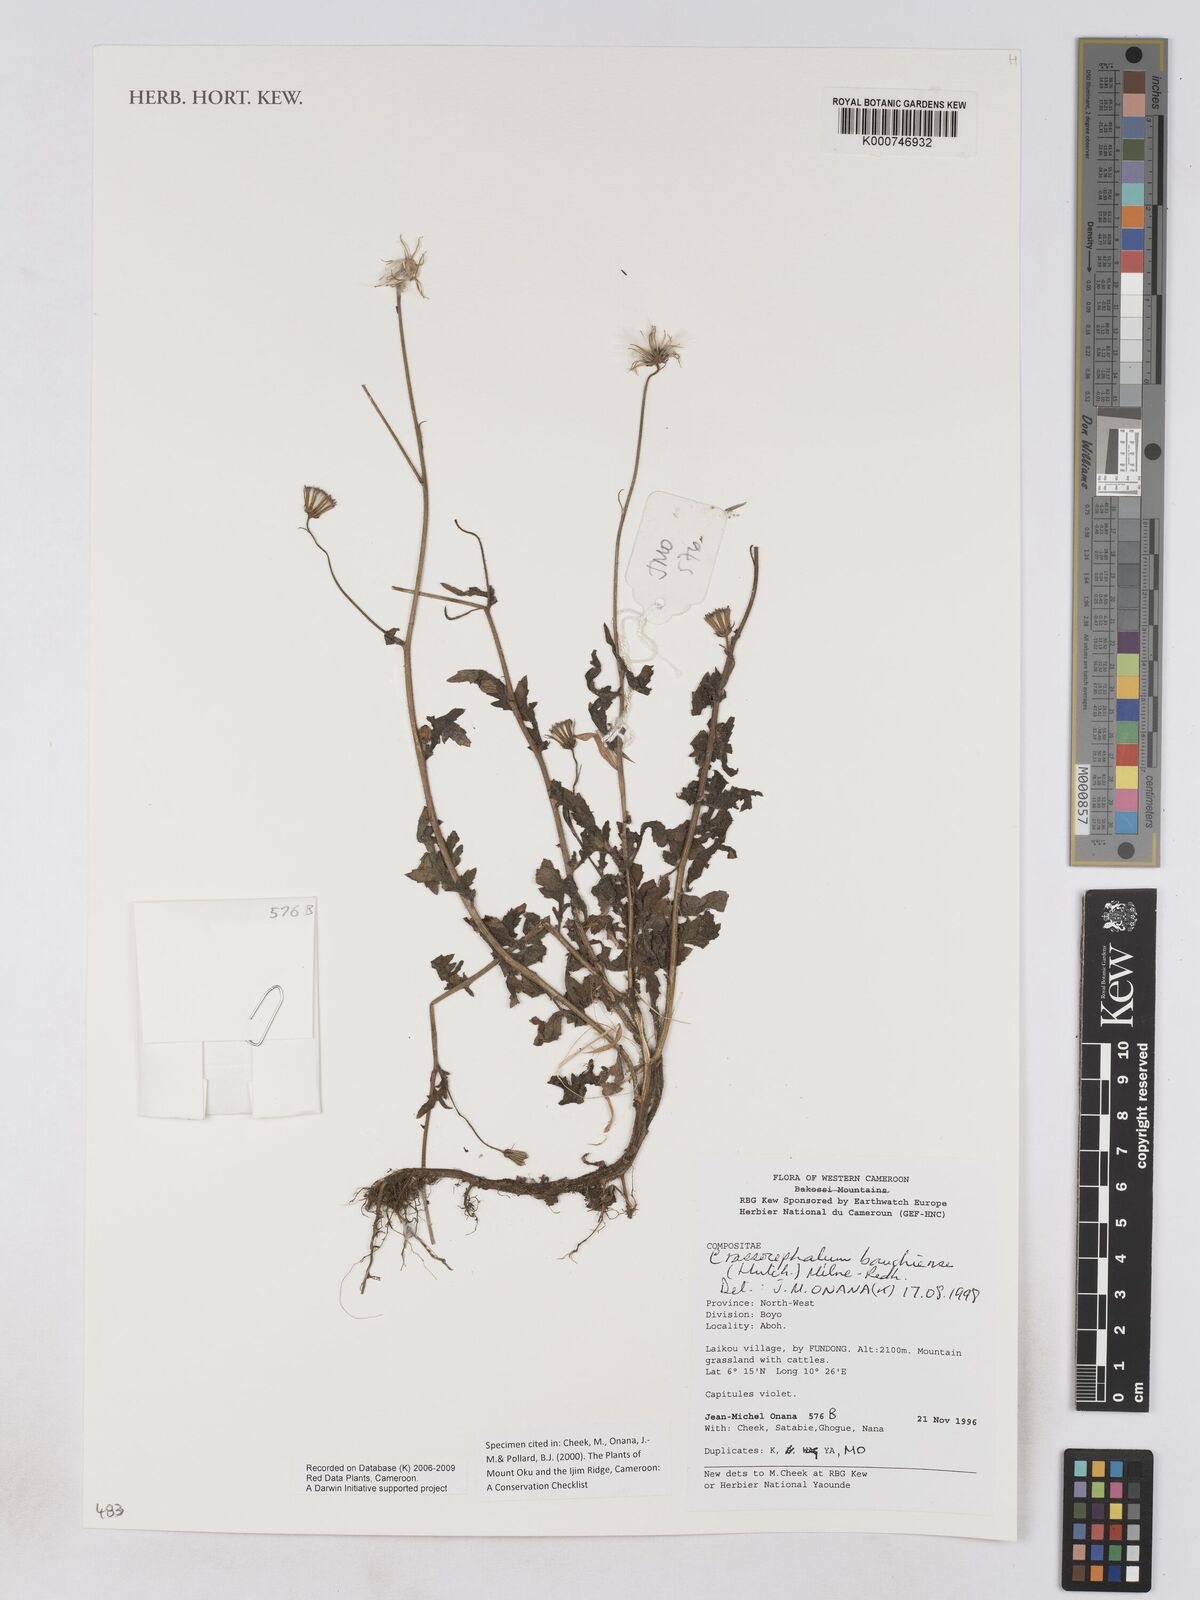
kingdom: Plantae
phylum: Tracheophyta
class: Magnoliopsida
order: Asterales
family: Asteraceae
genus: Crassocephalum
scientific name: Crassocephalum bauchiense
